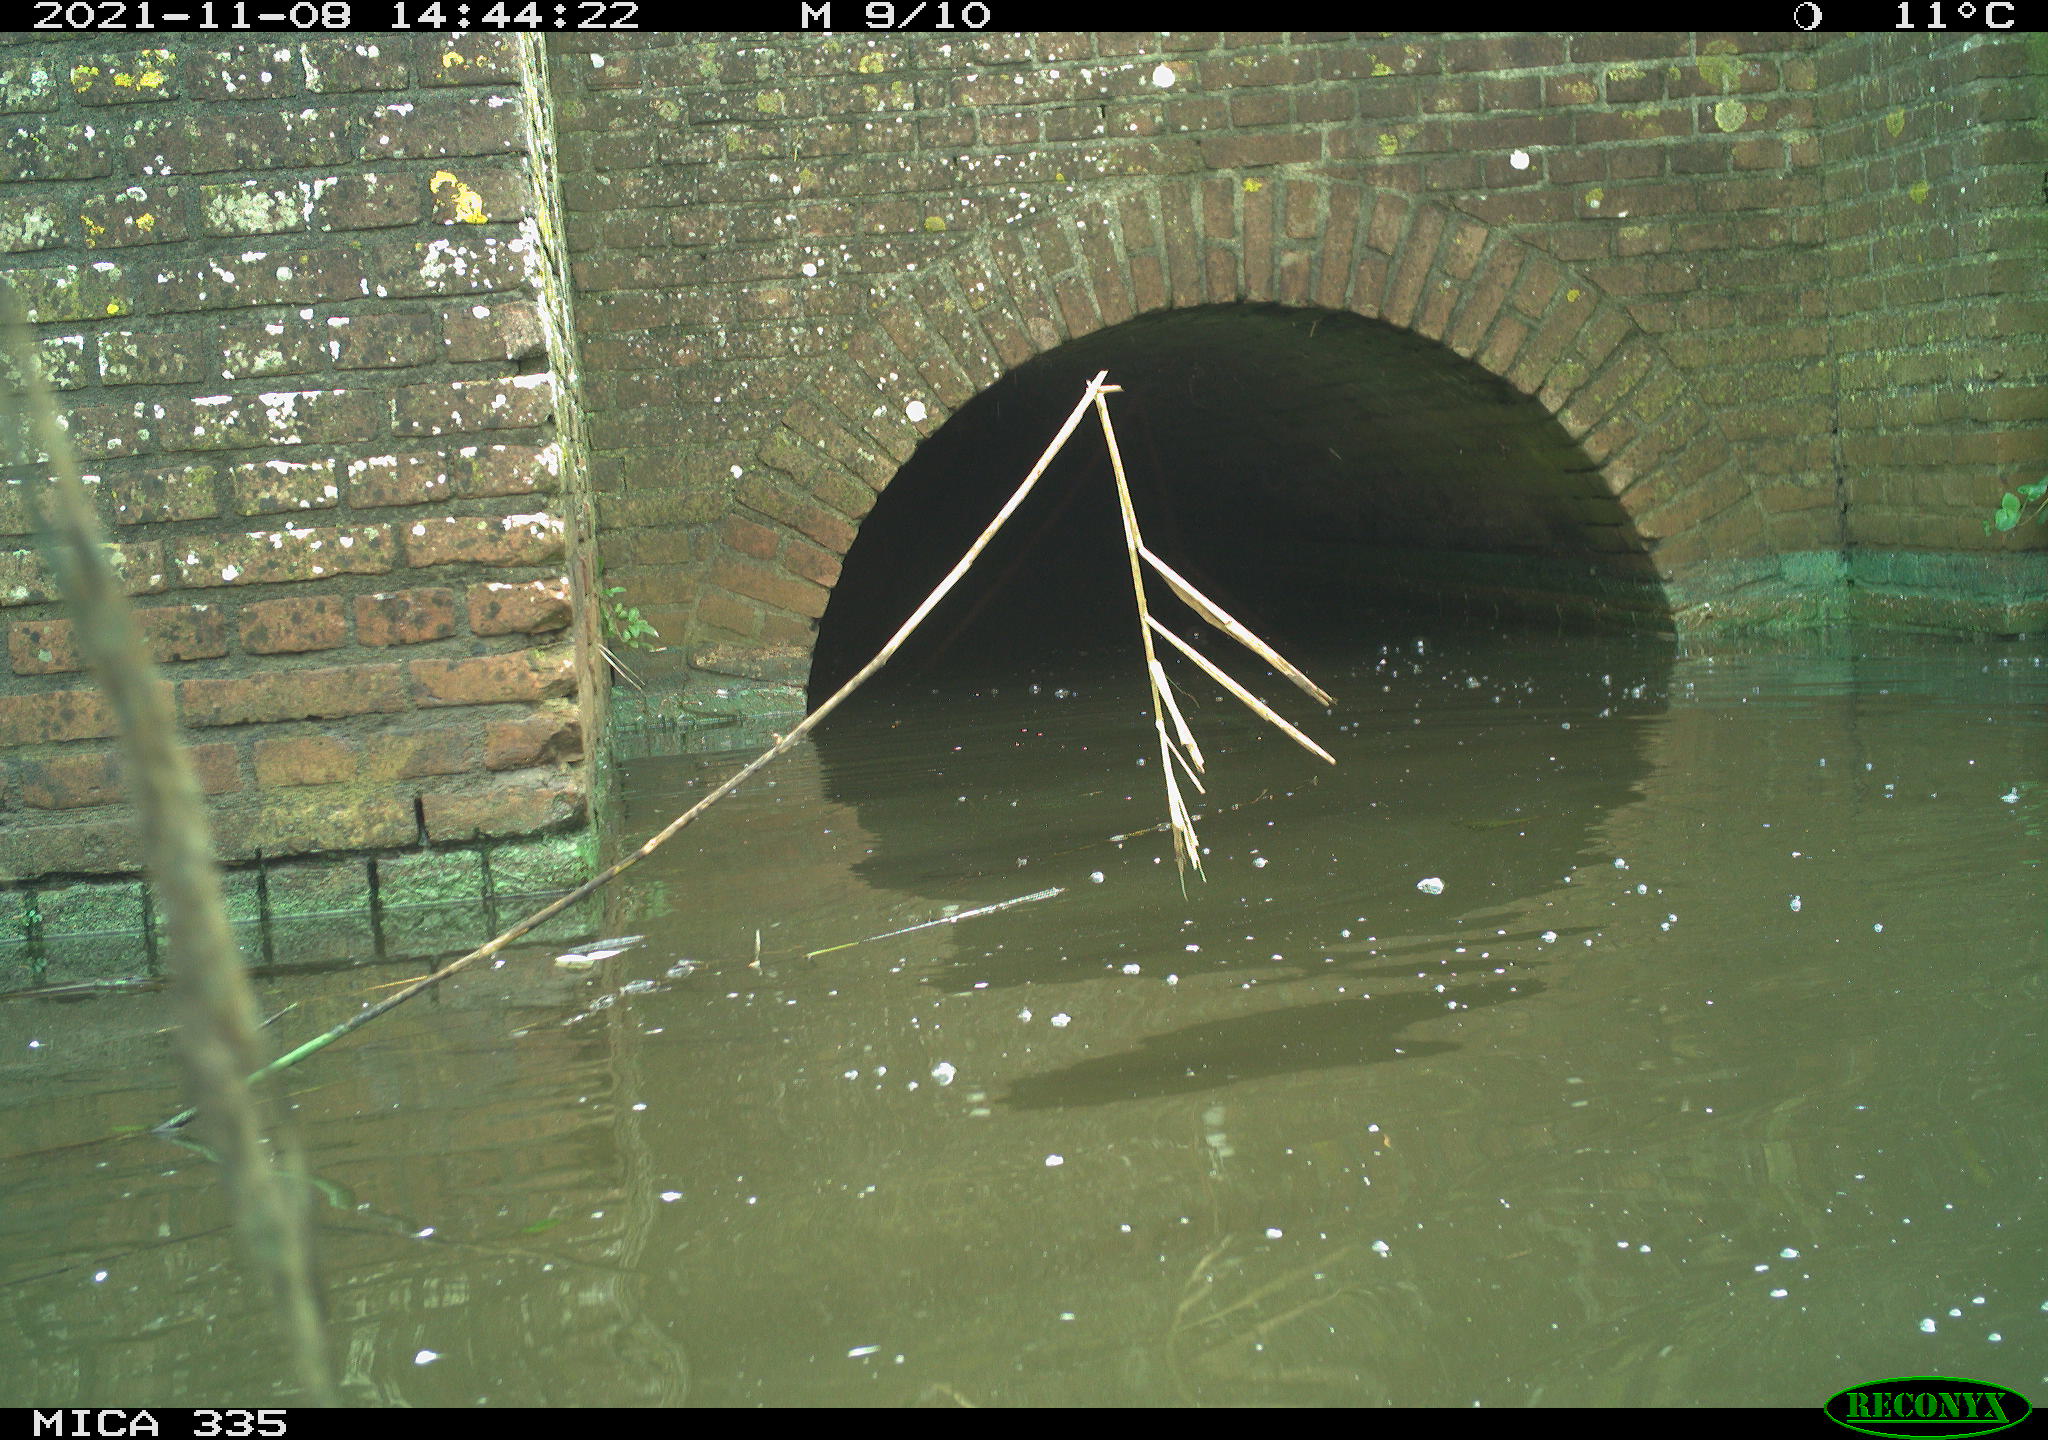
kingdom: Animalia
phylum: Chordata
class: Aves
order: Anseriformes
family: Anatidae
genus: Anas
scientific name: Anas platyrhynchos
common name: Mallard
